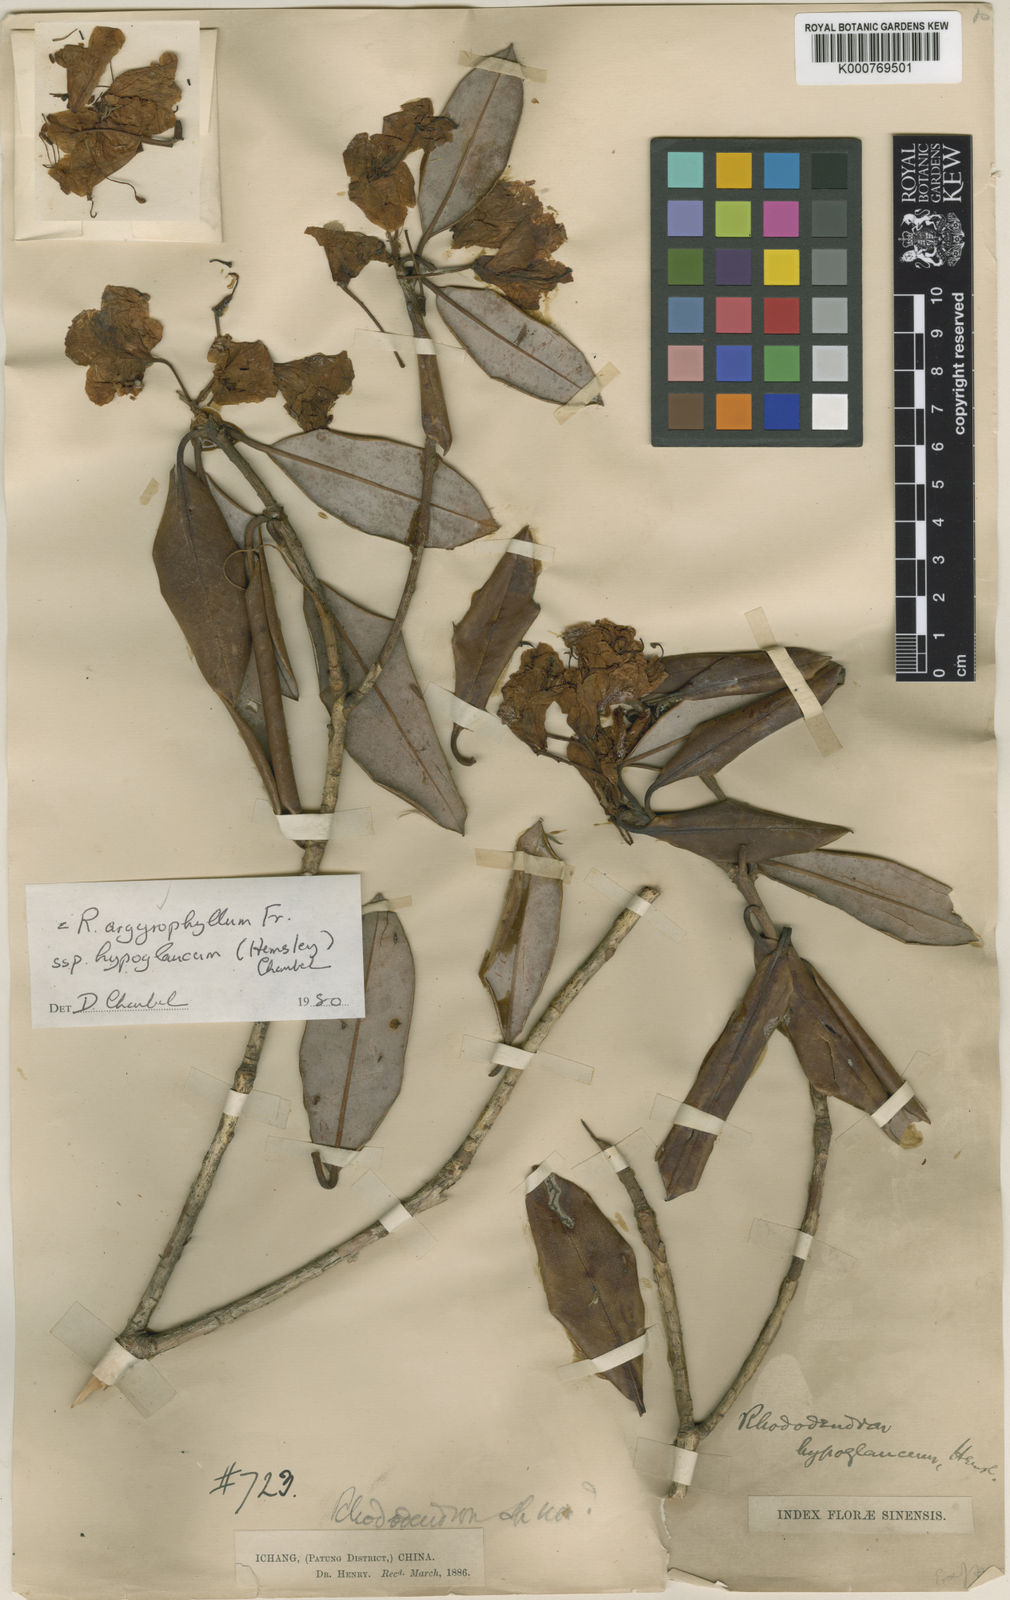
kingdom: Plantae
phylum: Tracheophyta
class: Magnoliopsida
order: Ericales
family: Ericaceae
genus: Rhododendron
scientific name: Rhododendron hypoglaucum
